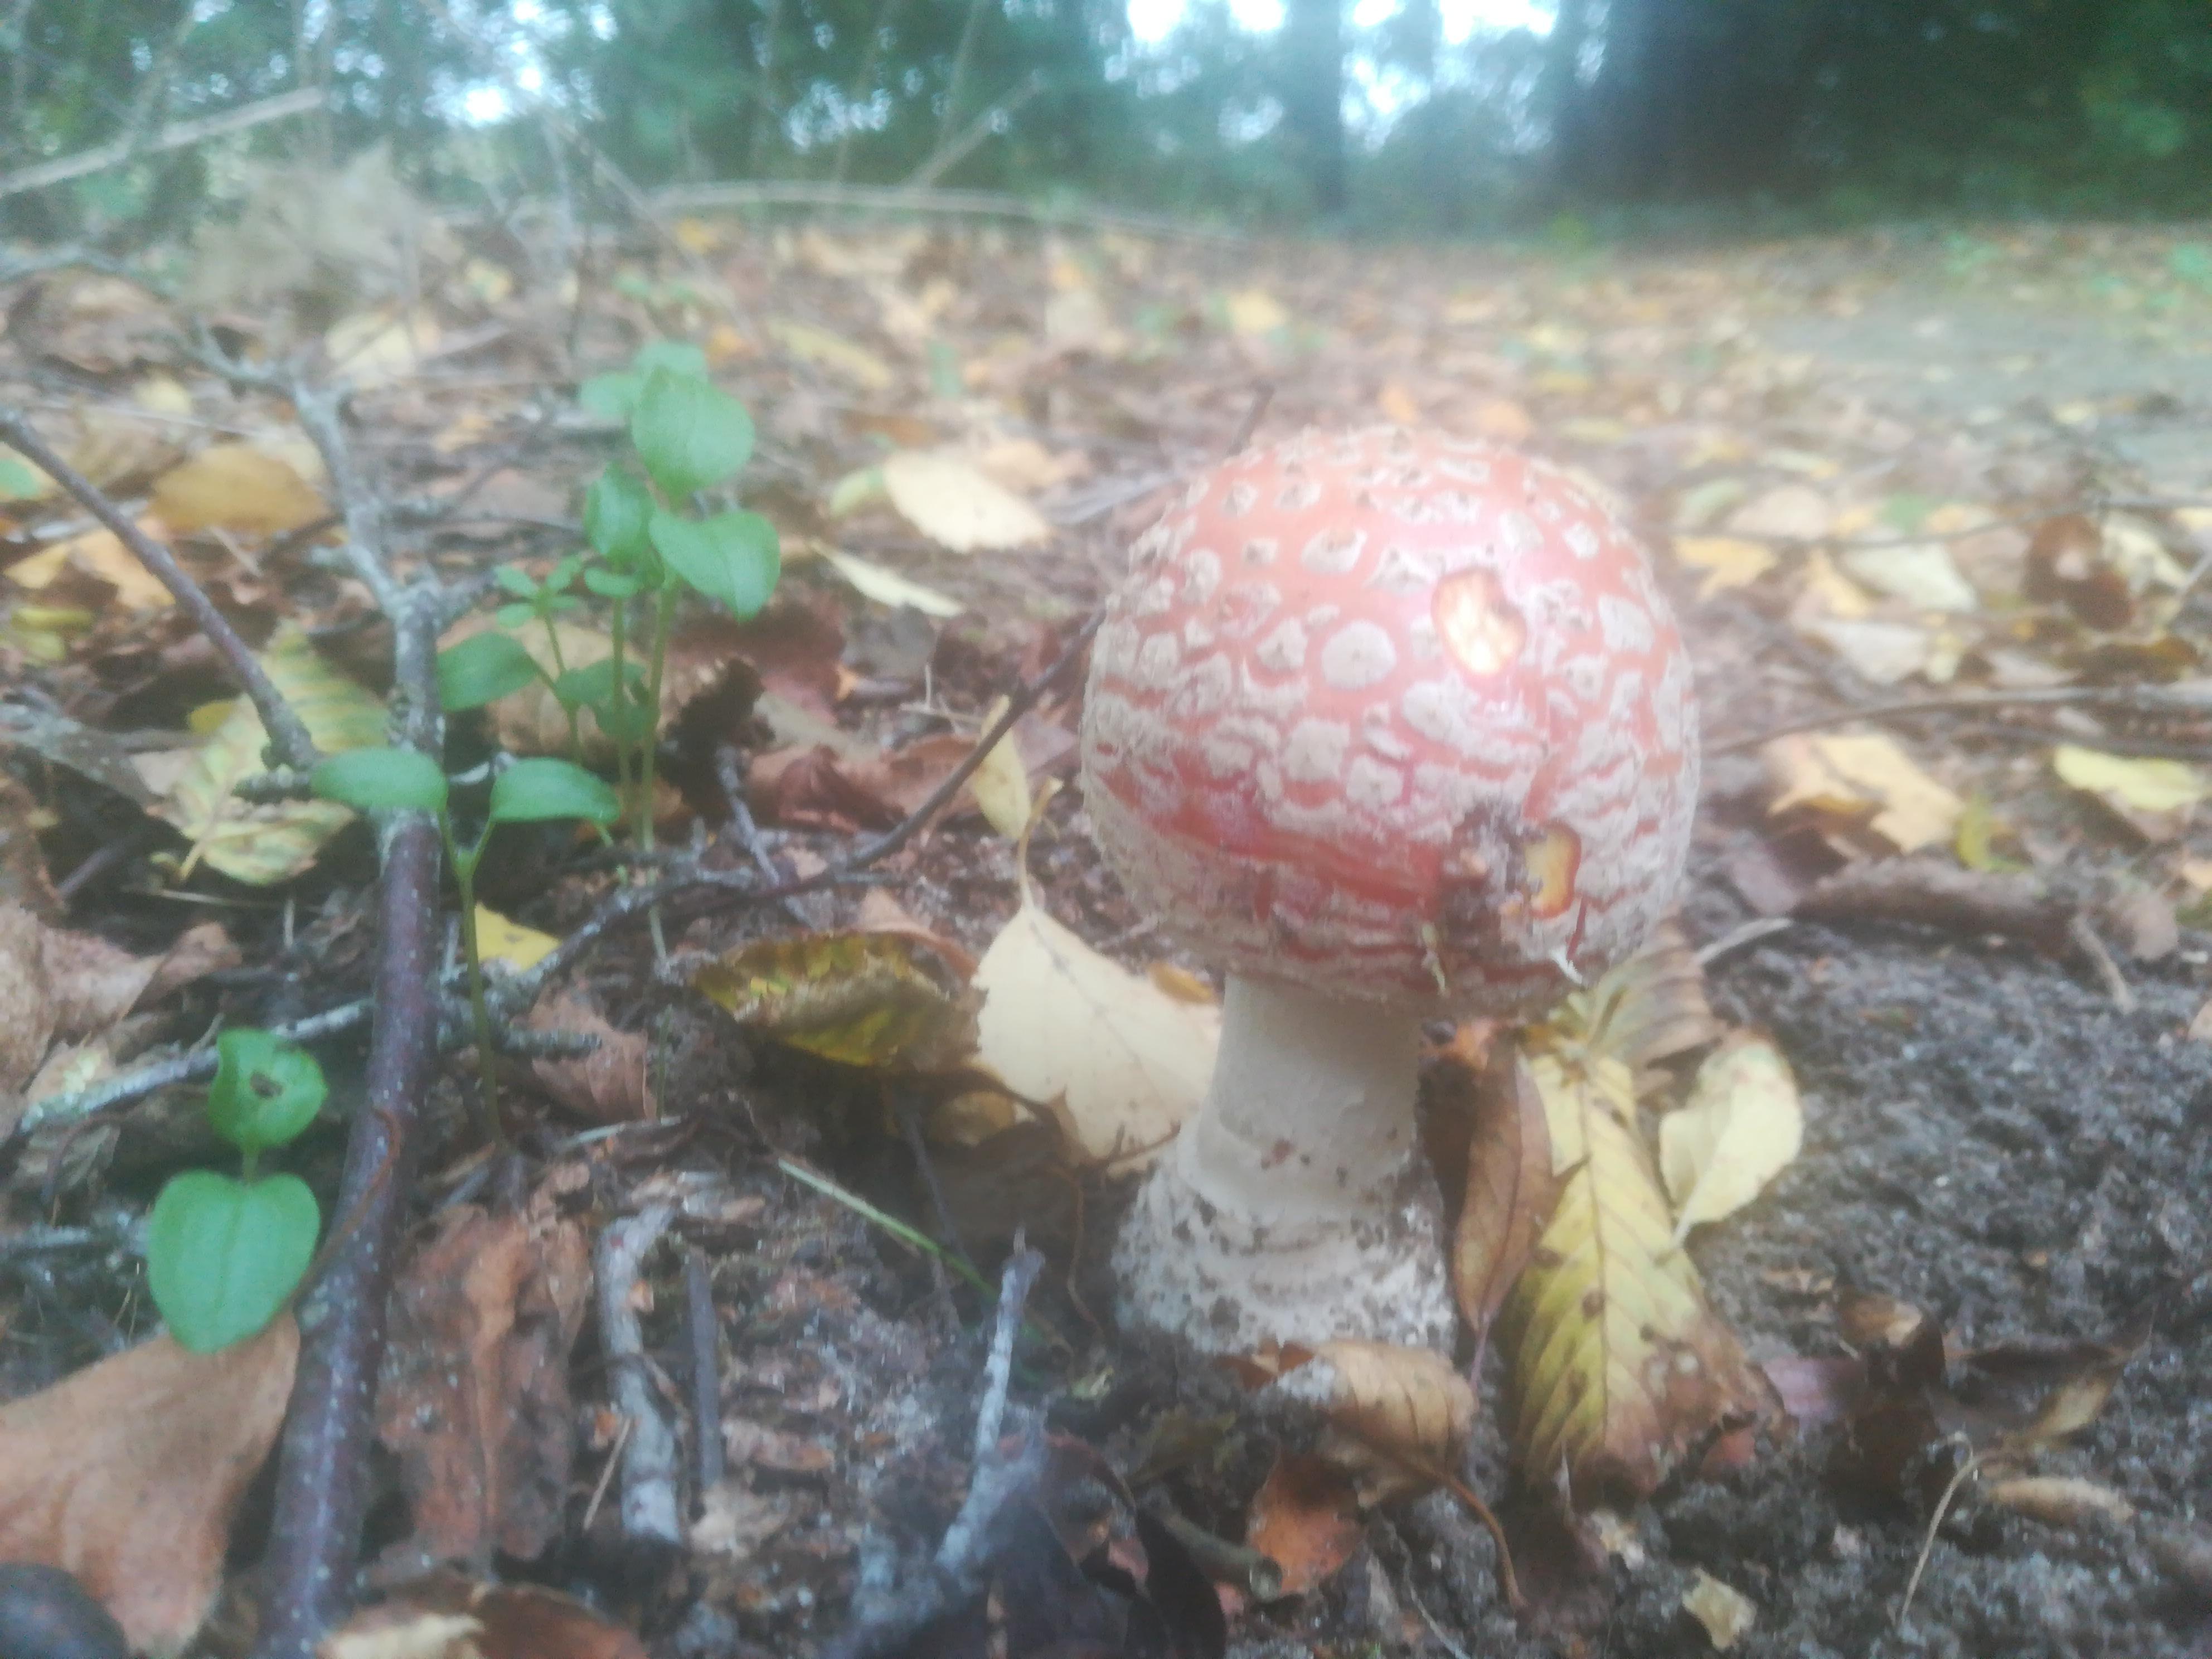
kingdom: Fungi
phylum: Basidiomycota
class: Agaricomycetes
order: Agaricales
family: Amanitaceae
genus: Amanita
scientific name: Amanita muscaria
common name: rød fluesvamp
